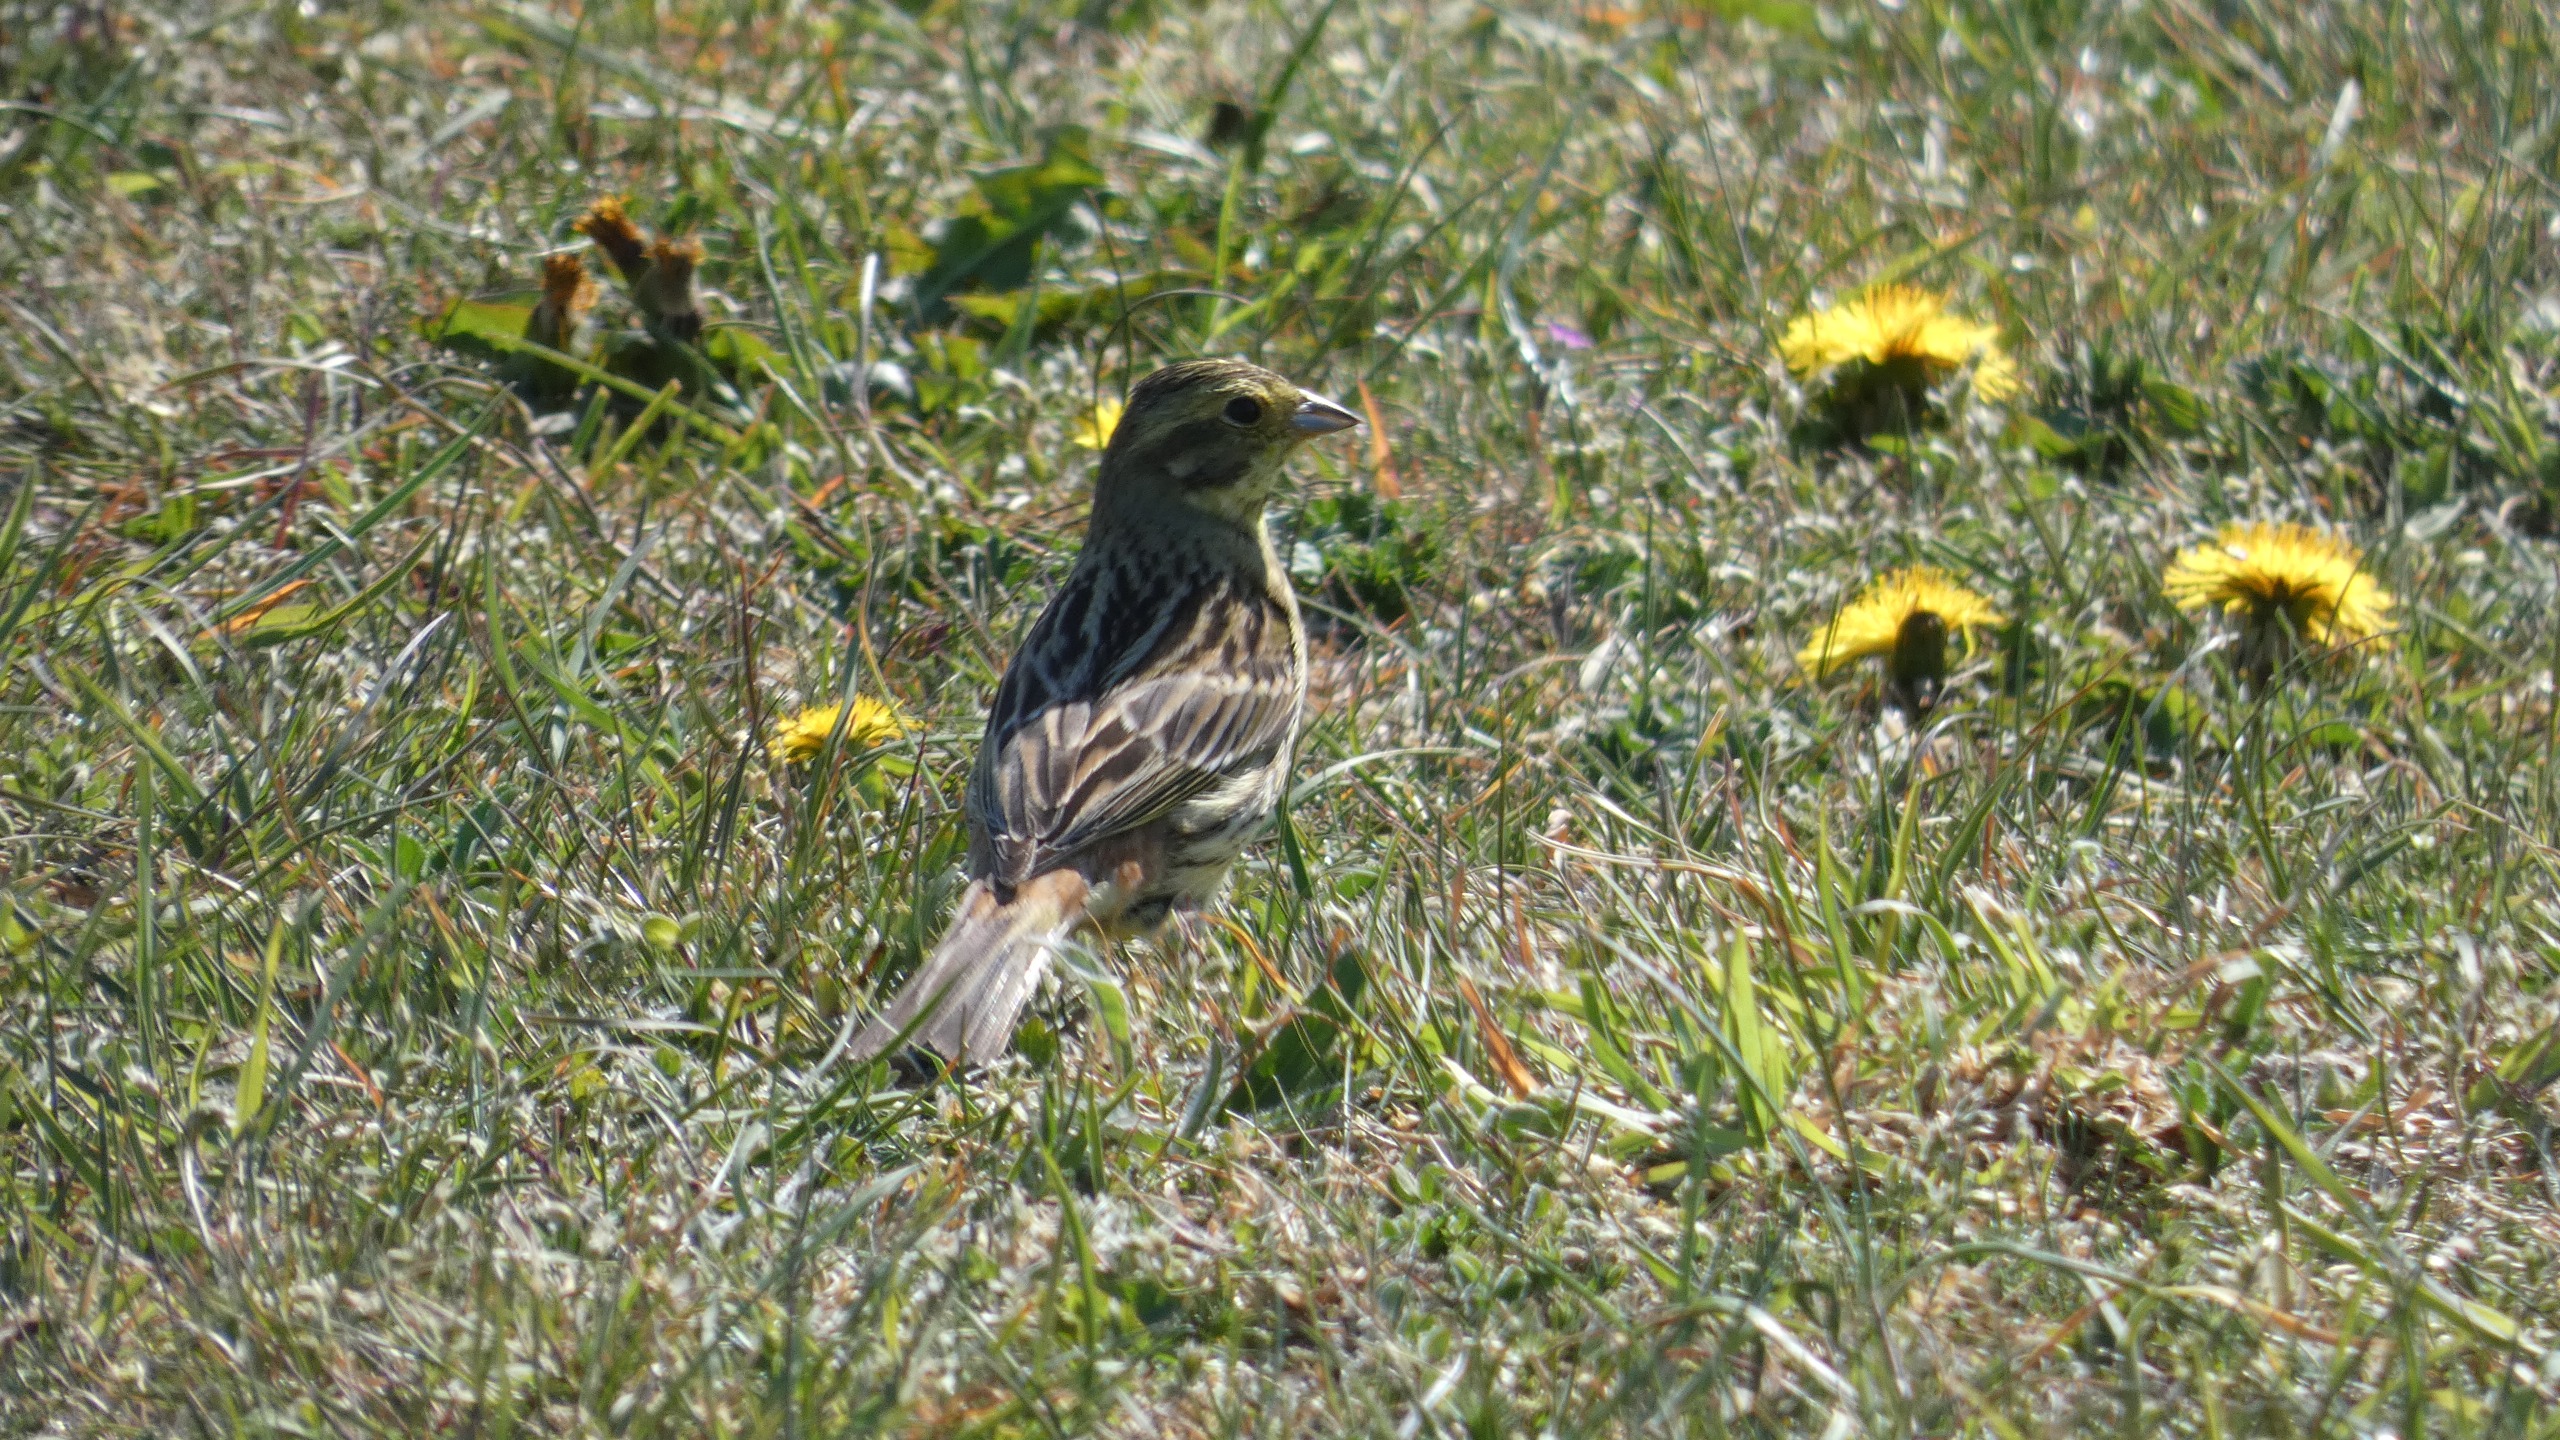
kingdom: Animalia
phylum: Chordata
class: Aves
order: Passeriformes
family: Emberizidae
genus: Emberiza
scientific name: Emberiza citrinella
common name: Gulspurv
